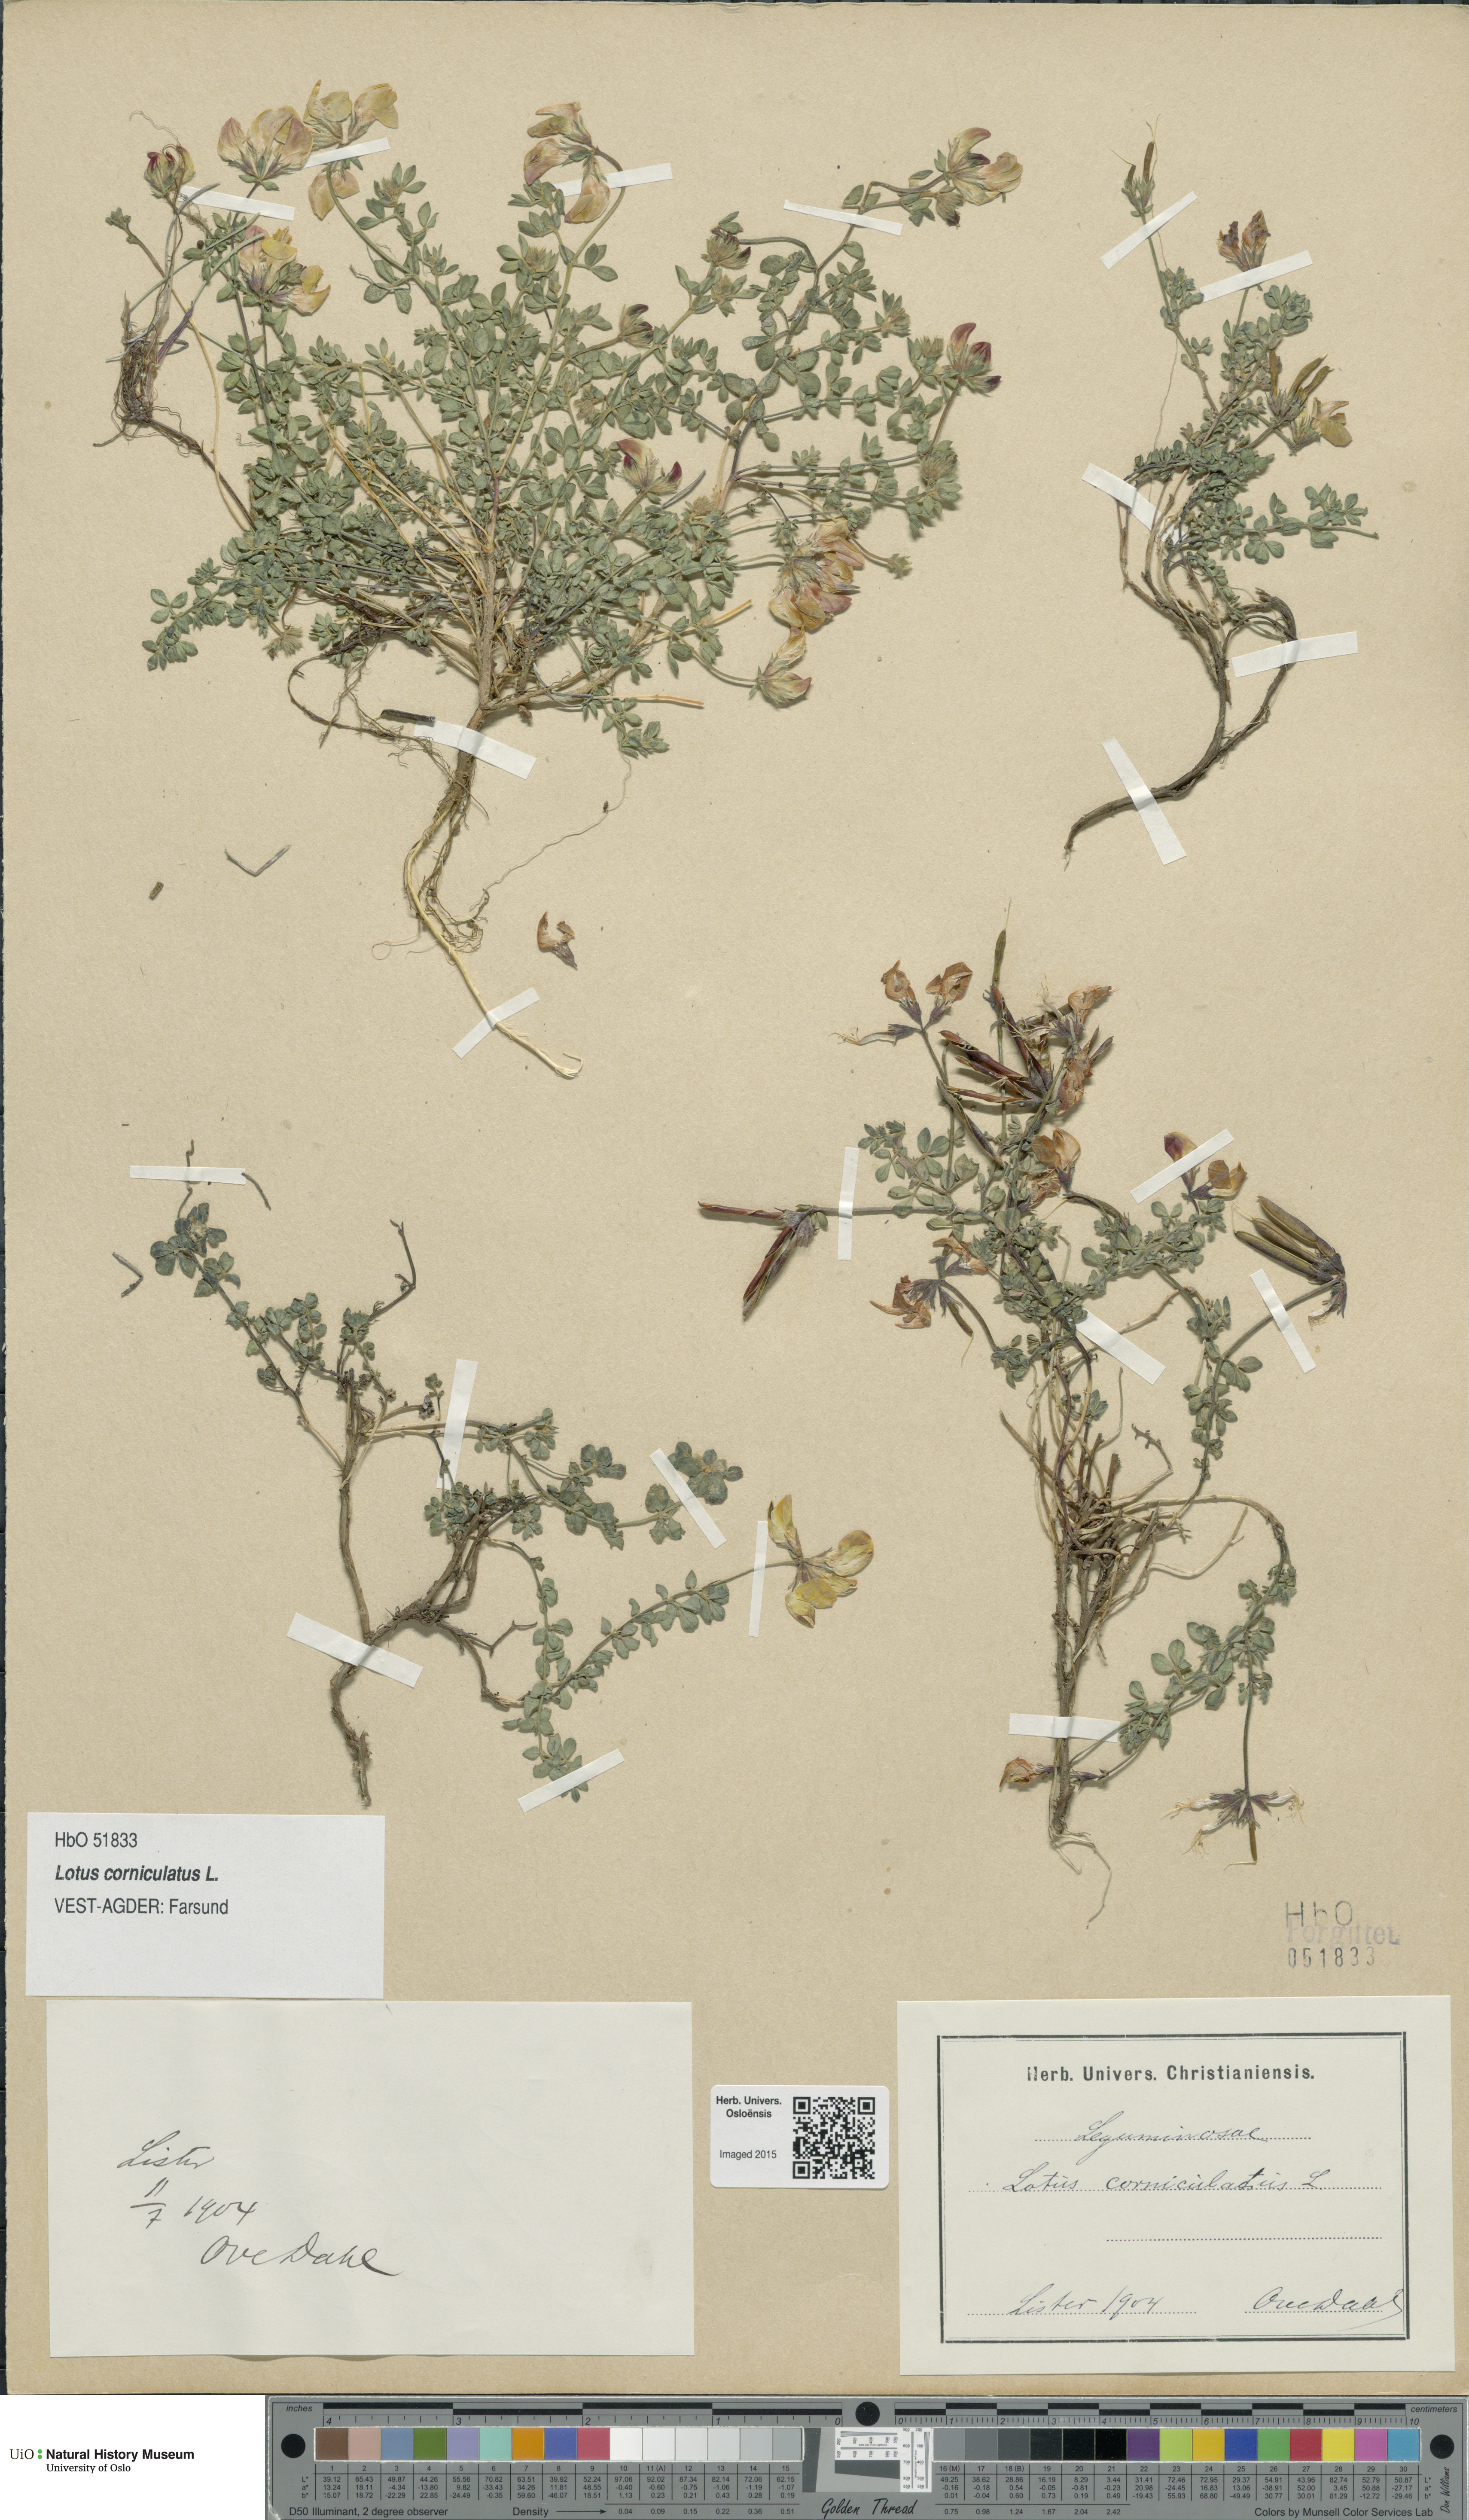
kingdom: Plantae
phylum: Tracheophyta
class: Magnoliopsida
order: Fabales
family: Fabaceae
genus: Lotus
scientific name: Lotus corniculatus
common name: Common bird's-foot-trefoil
